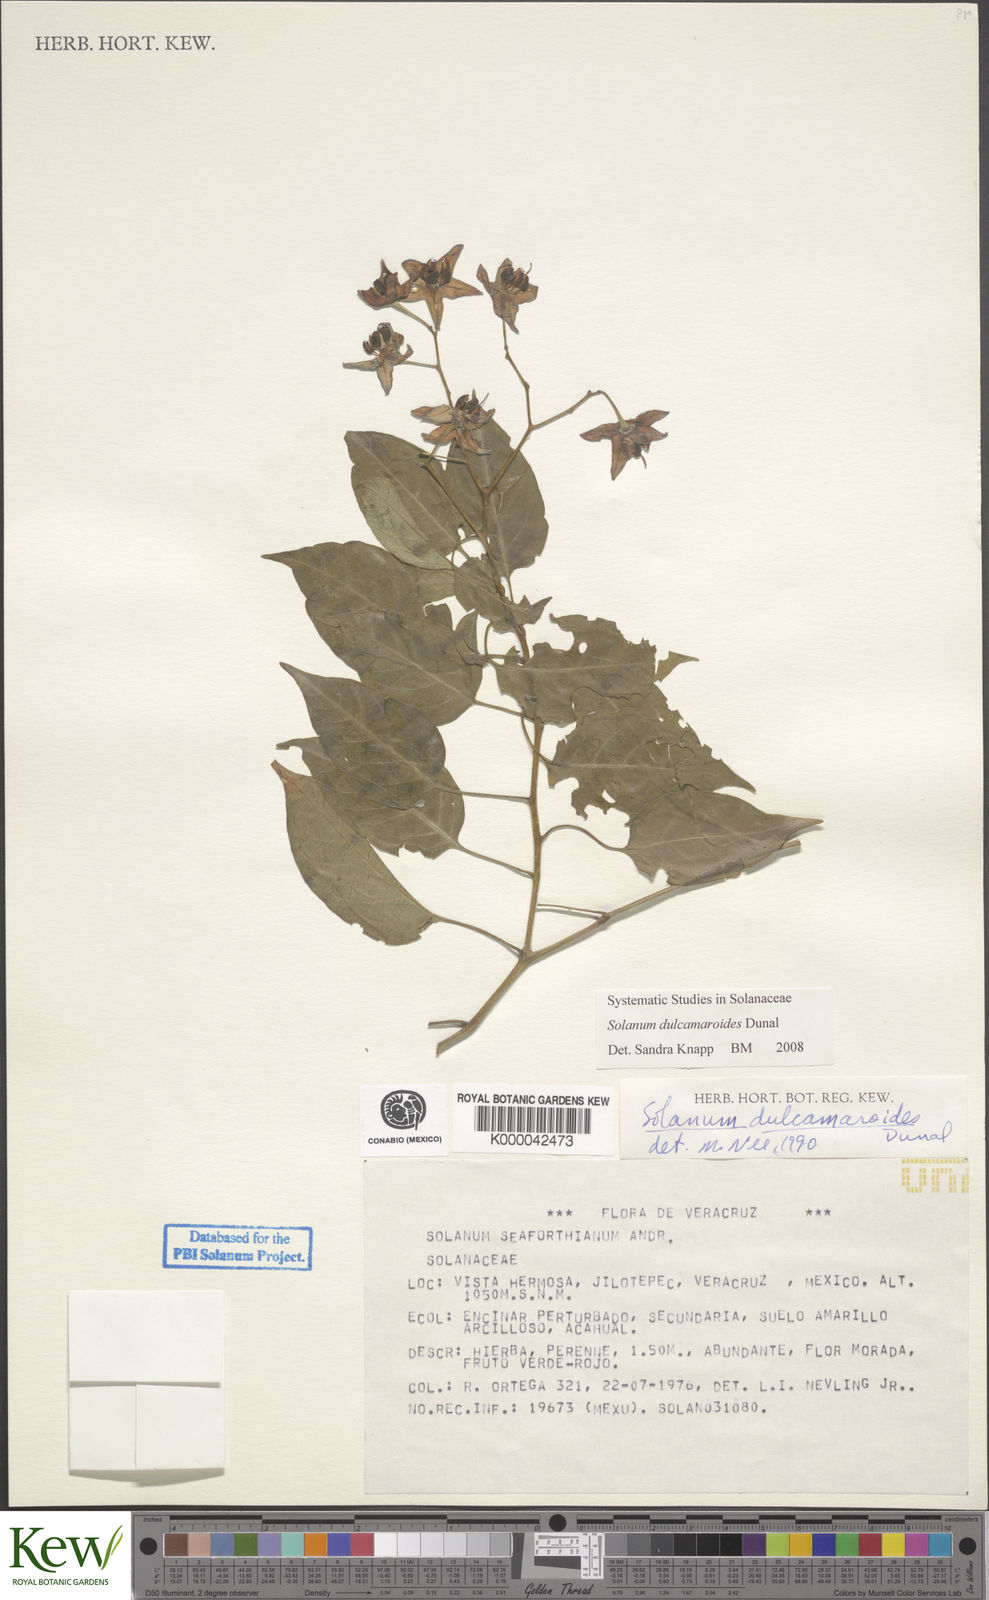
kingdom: Plantae
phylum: Tracheophyta
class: Magnoliopsida
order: Solanales
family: Solanaceae
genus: Solanum
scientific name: Solanum dulcamaroides
